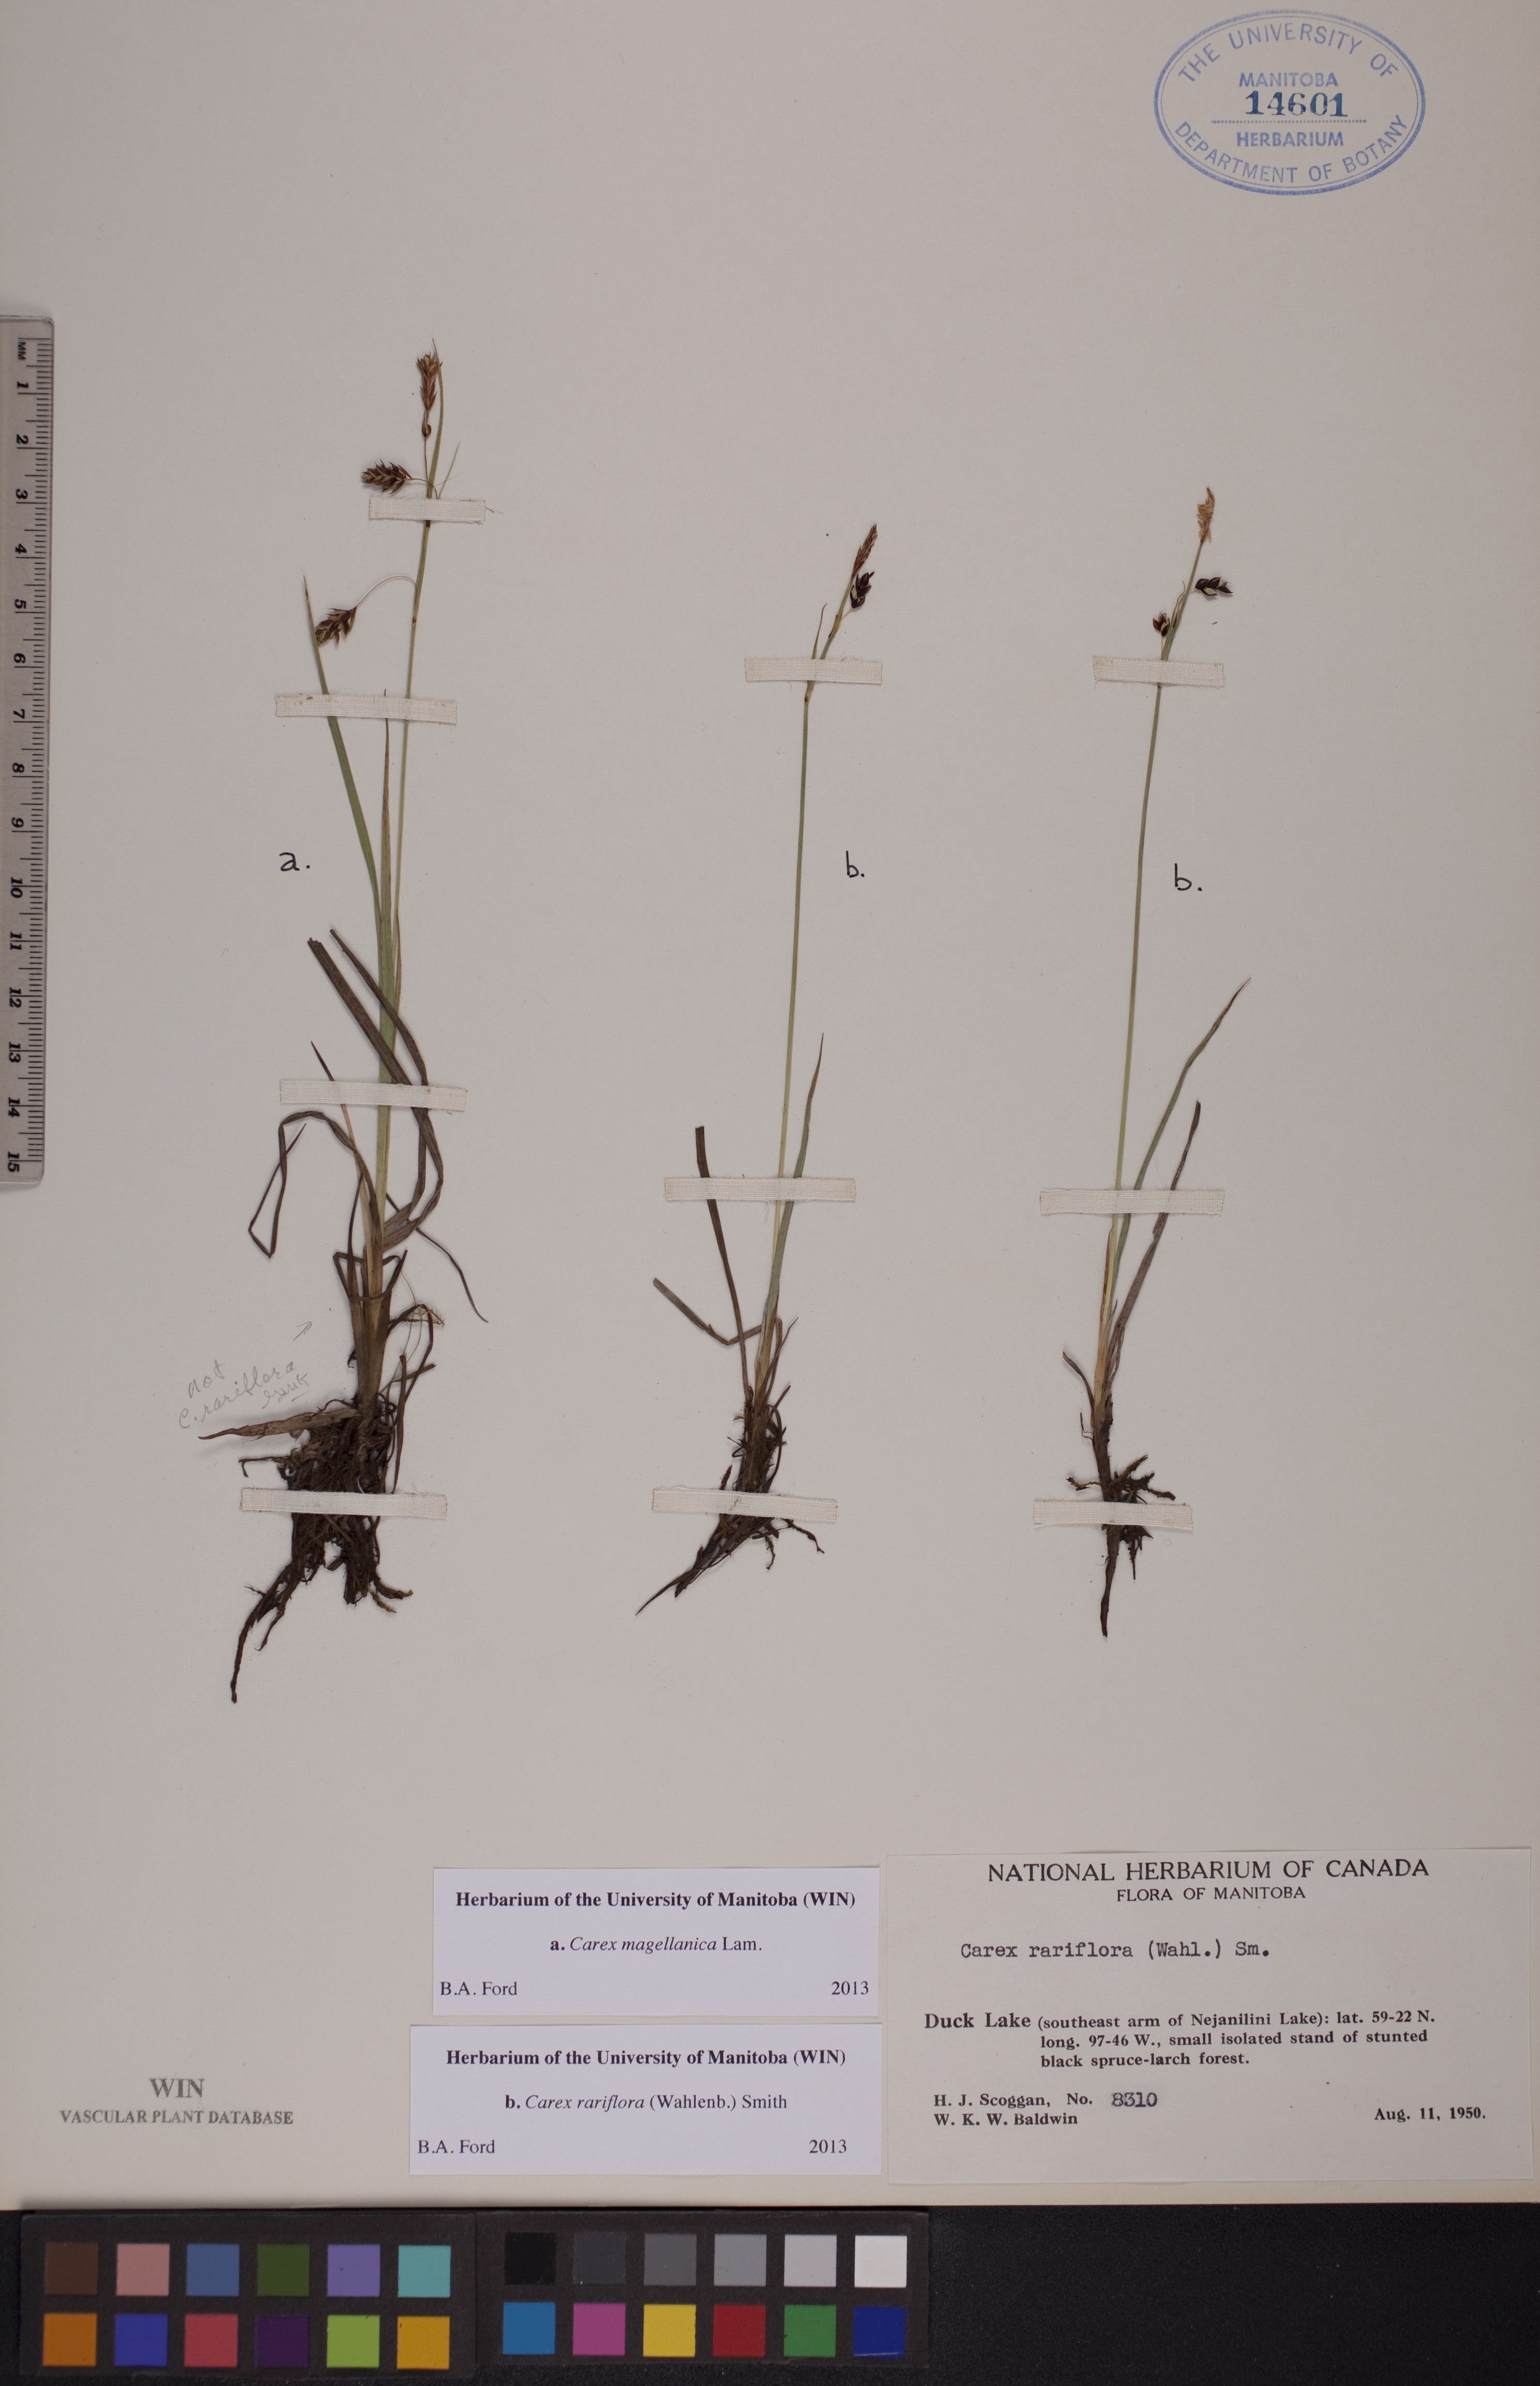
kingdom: Plantae
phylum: Tracheophyta
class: Liliopsida
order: Poales
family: Cyperaceae
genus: Carex
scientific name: Carex magellanica
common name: Bog sedge
